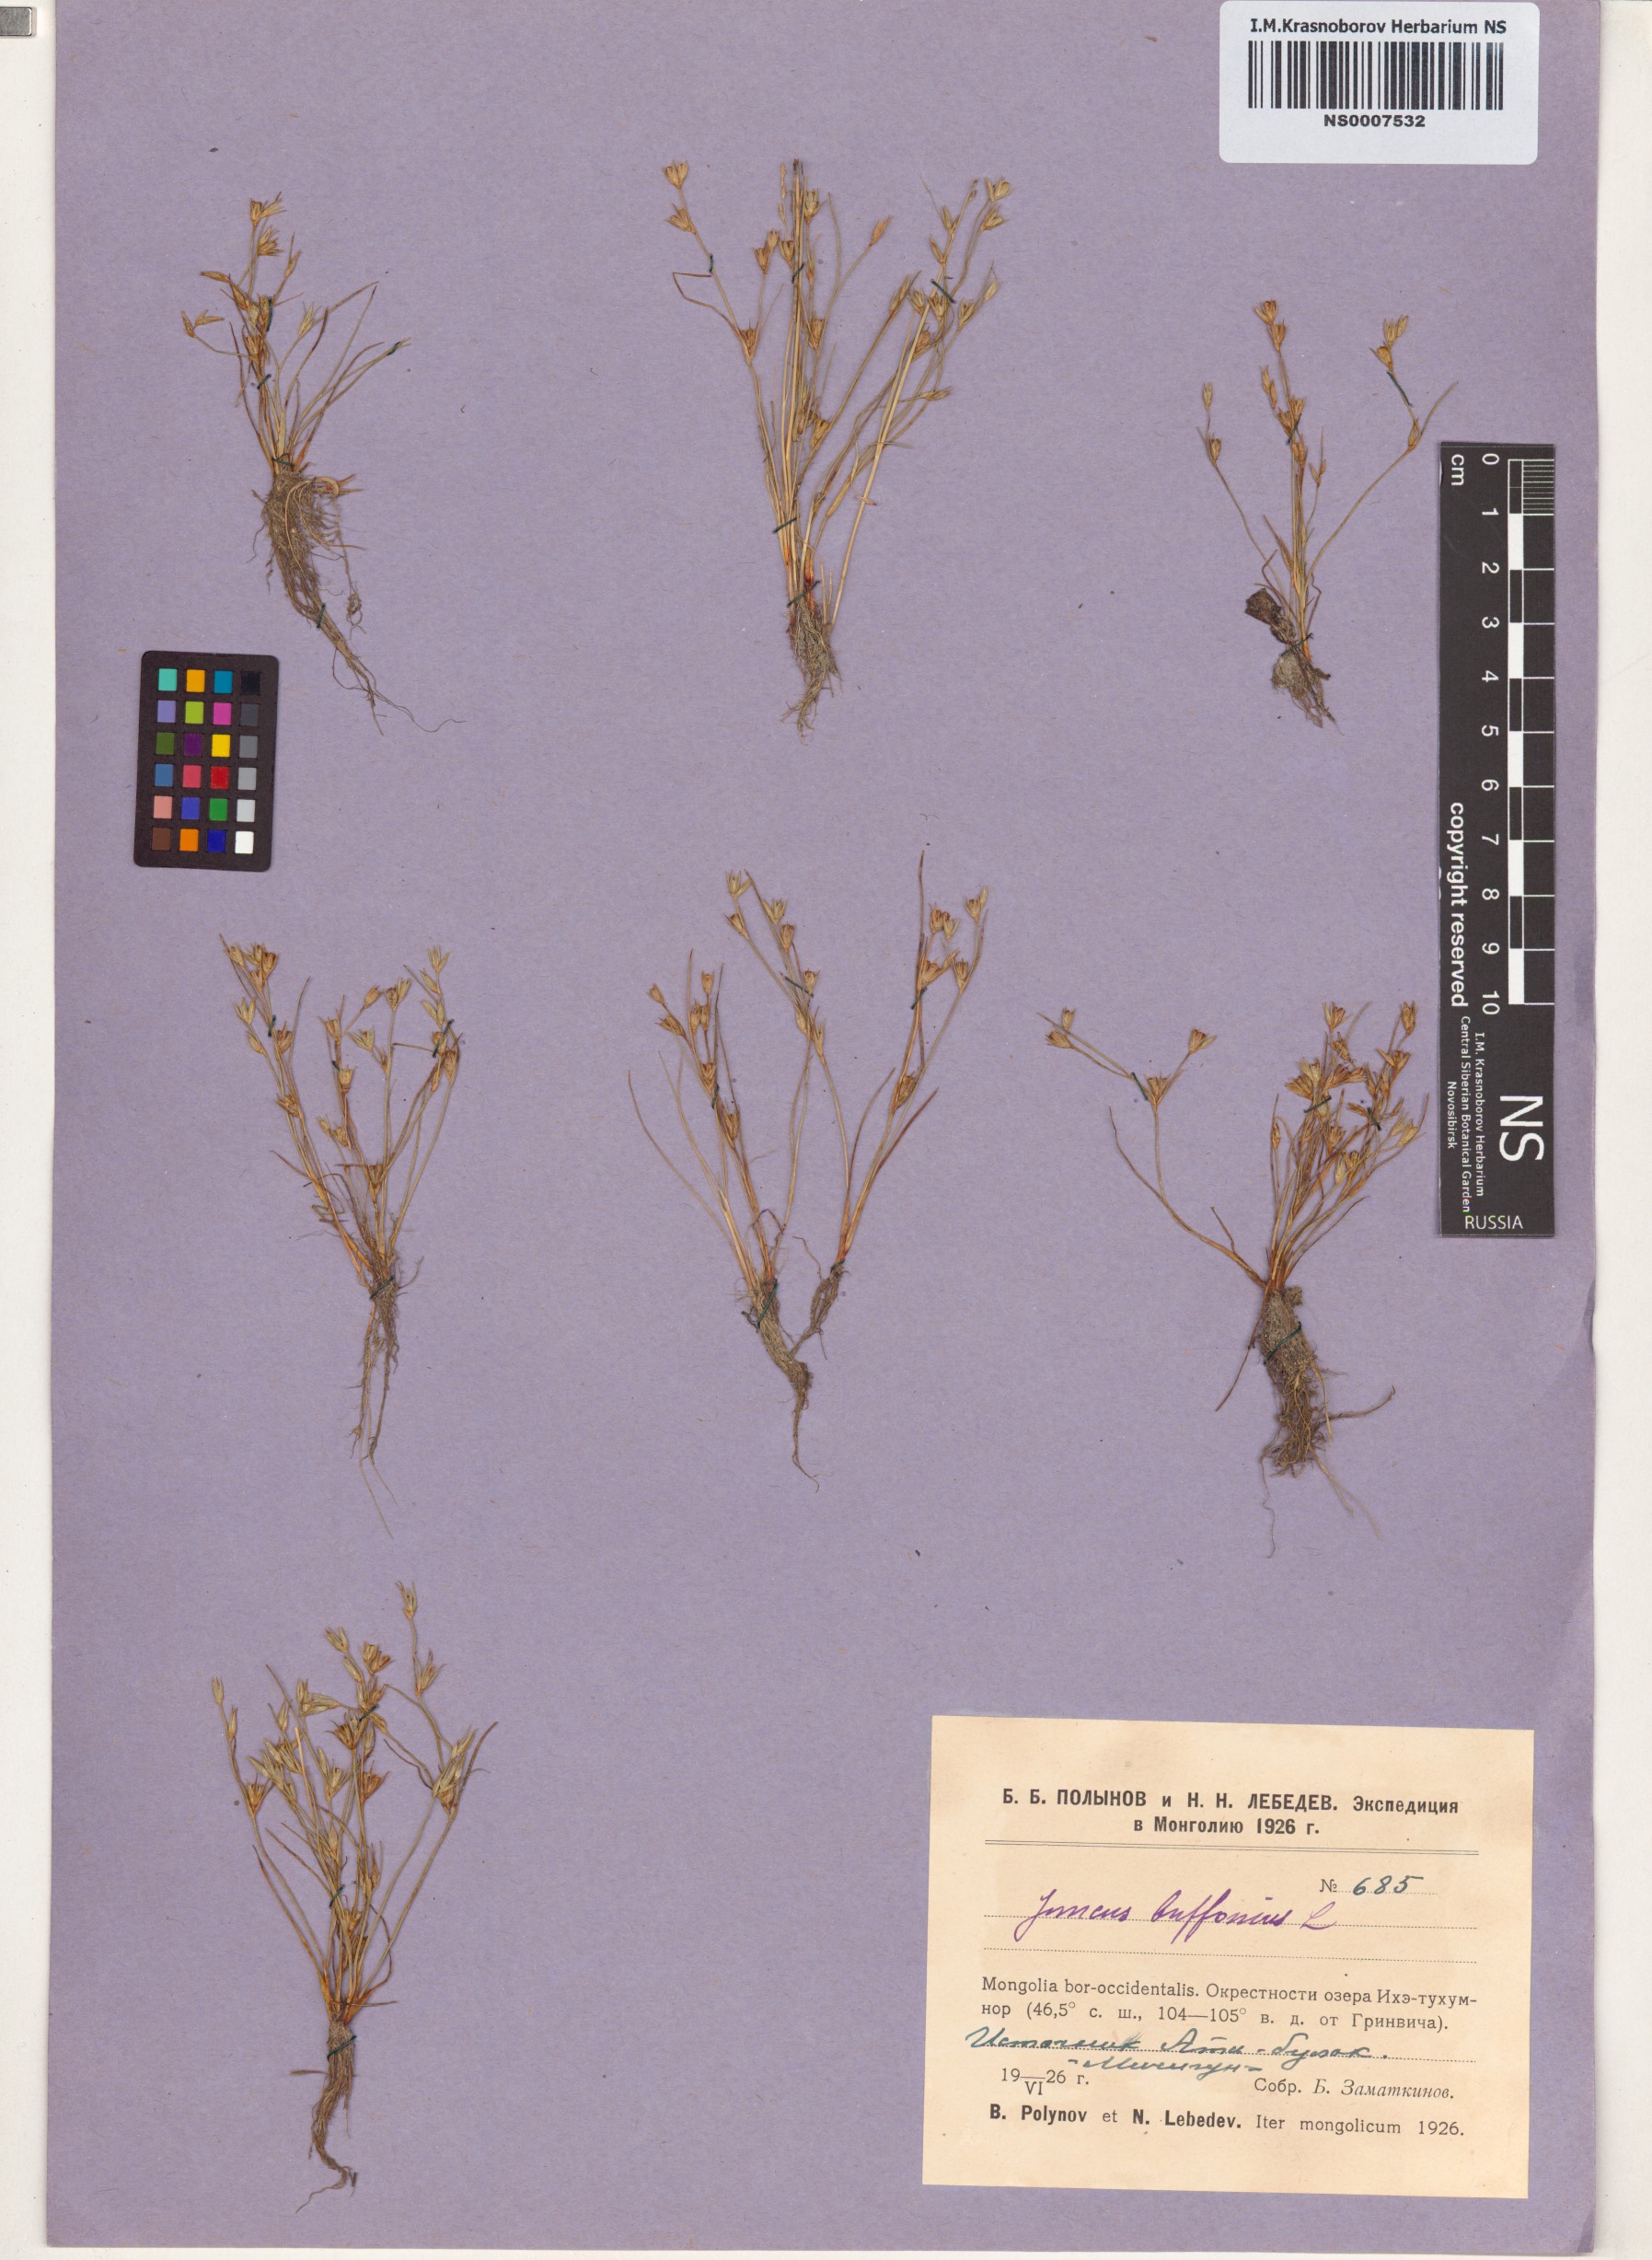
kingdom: Plantae
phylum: Tracheophyta
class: Liliopsida
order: Poales
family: Juncaceae
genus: Juncus
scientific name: Juncus bufonius
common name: Toad rush
